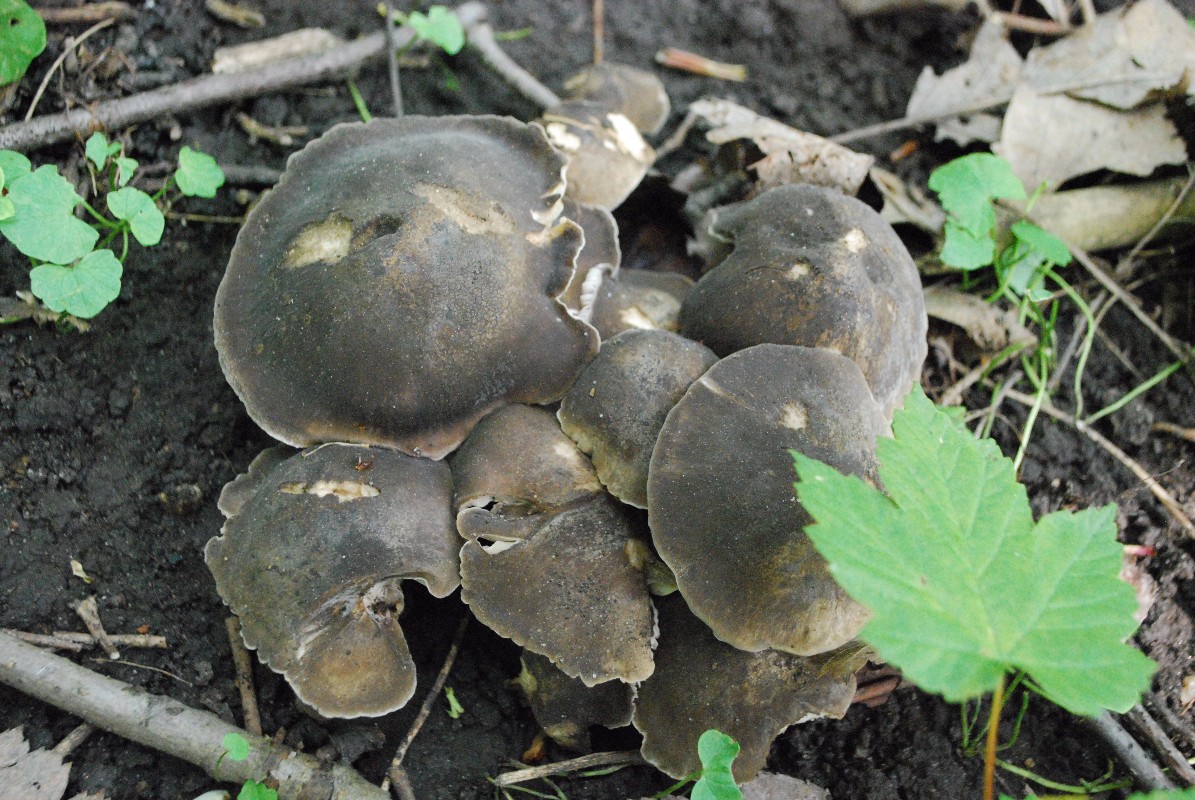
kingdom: Fungi
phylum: Basidiomycota
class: Agaricomycetes
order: Agaricales
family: Lyophyllaceae
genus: Lyophyllum
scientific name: Lyophyllum decastes
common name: røggrå gråblad
